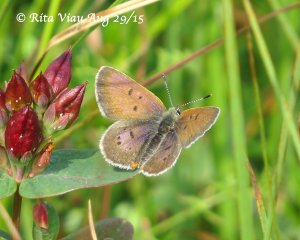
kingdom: Animalia
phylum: Arthropoda
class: Insecta
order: Lepidoptera
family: Sesiidae
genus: Sesia
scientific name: Sesia Lycaena epixanthe
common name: Bog Copper
